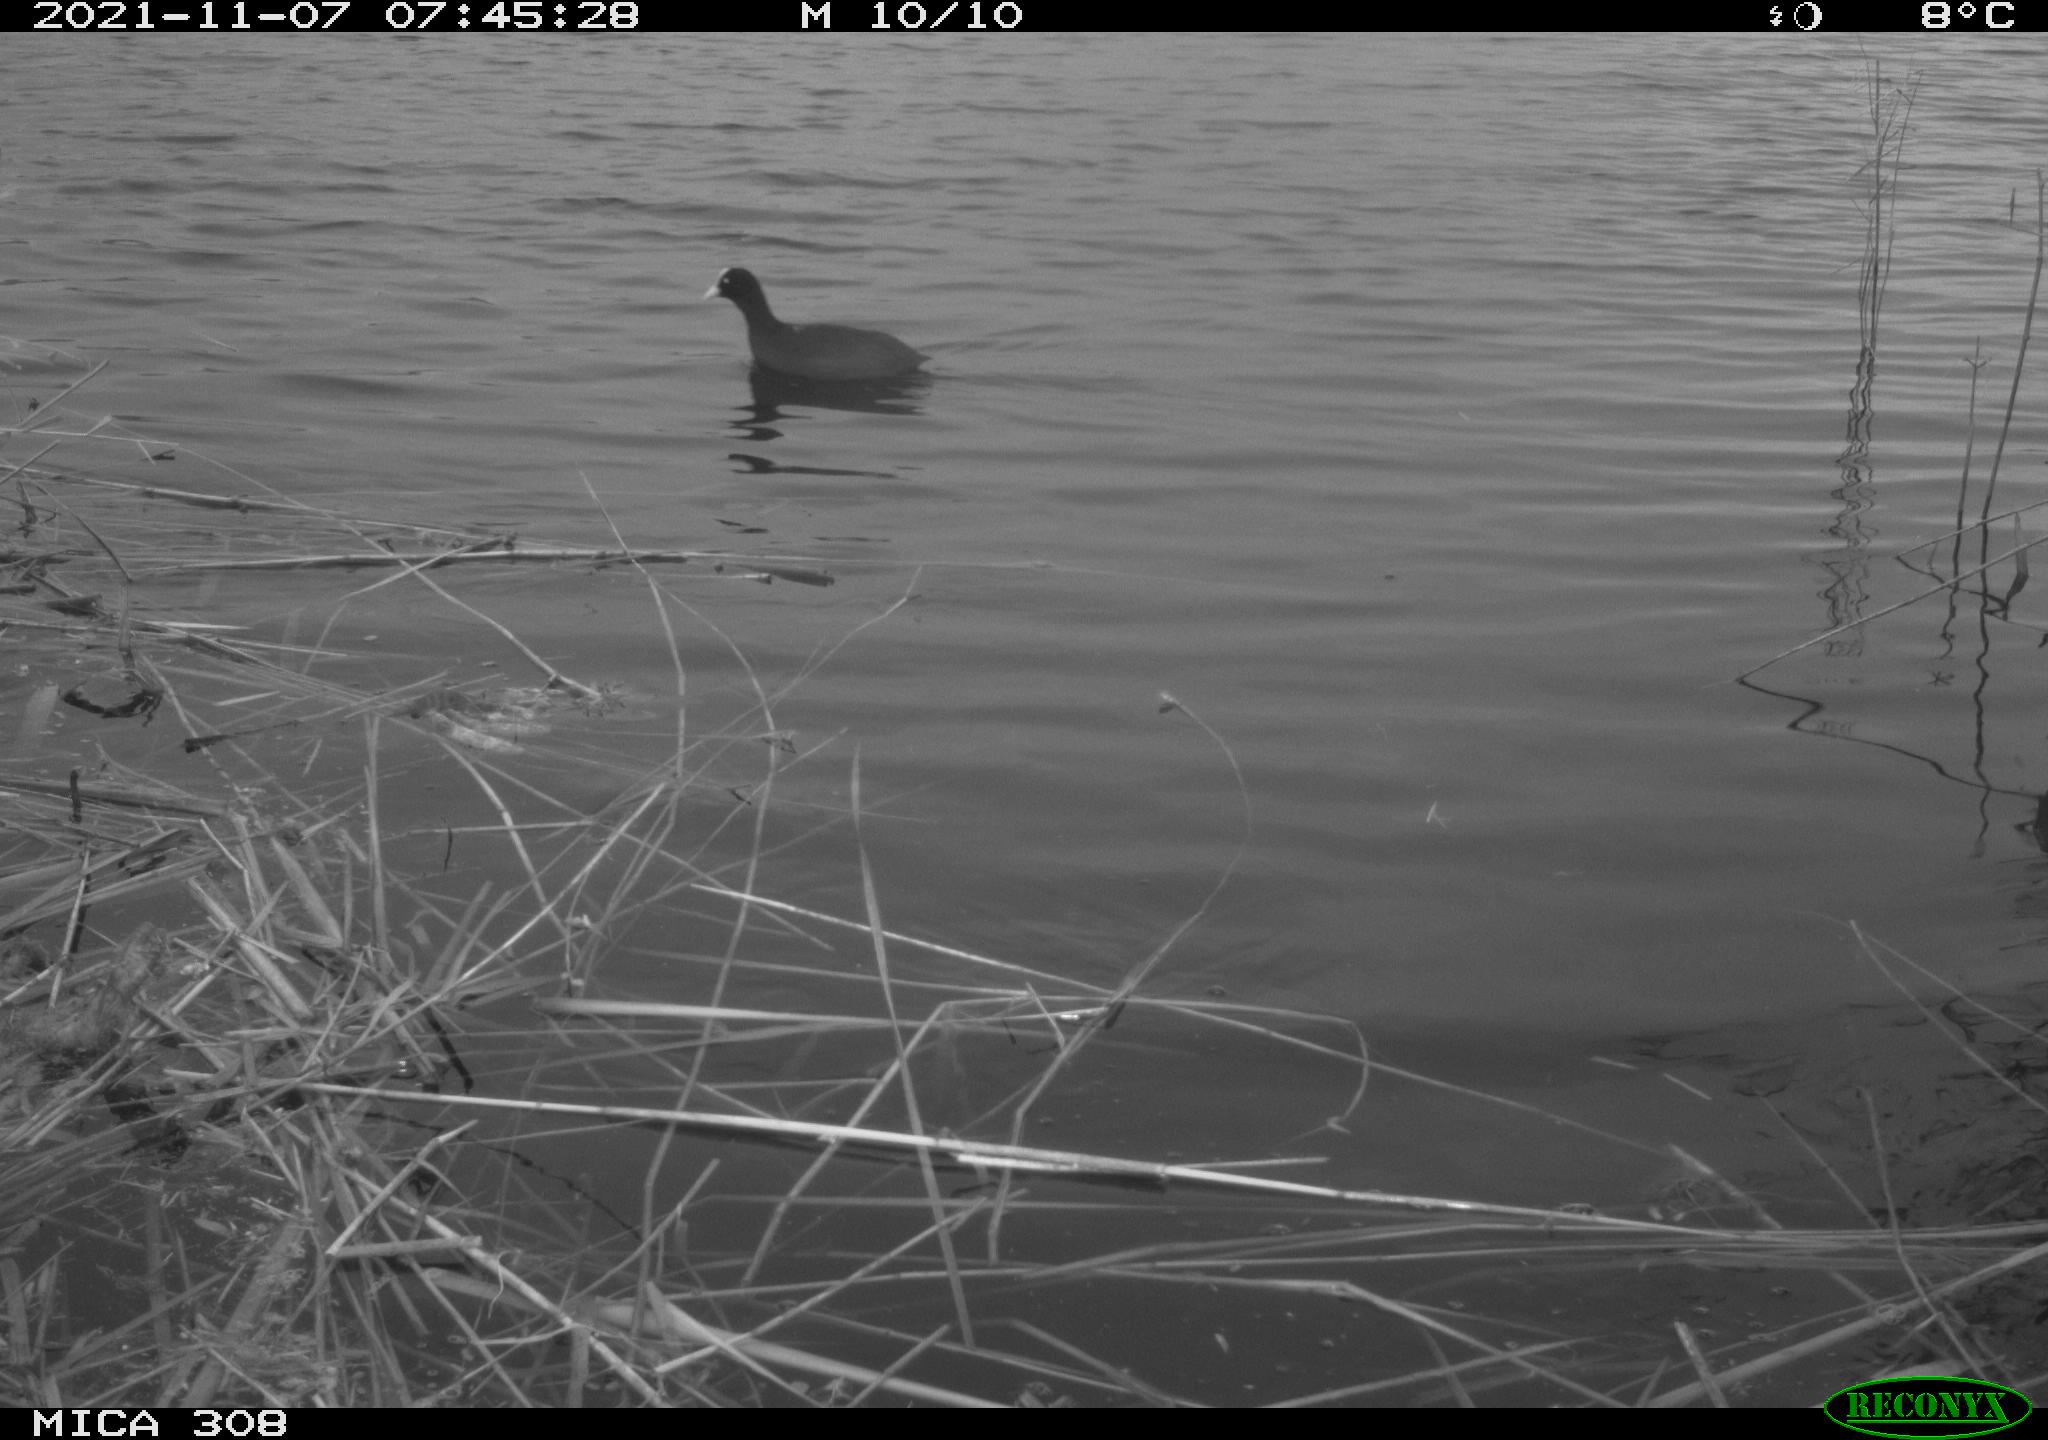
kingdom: Animalia
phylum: Chordata
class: Aves
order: Gruiformes
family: Rallidae
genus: Gallinula
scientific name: Gallinula chloropus
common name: Common moorhen
